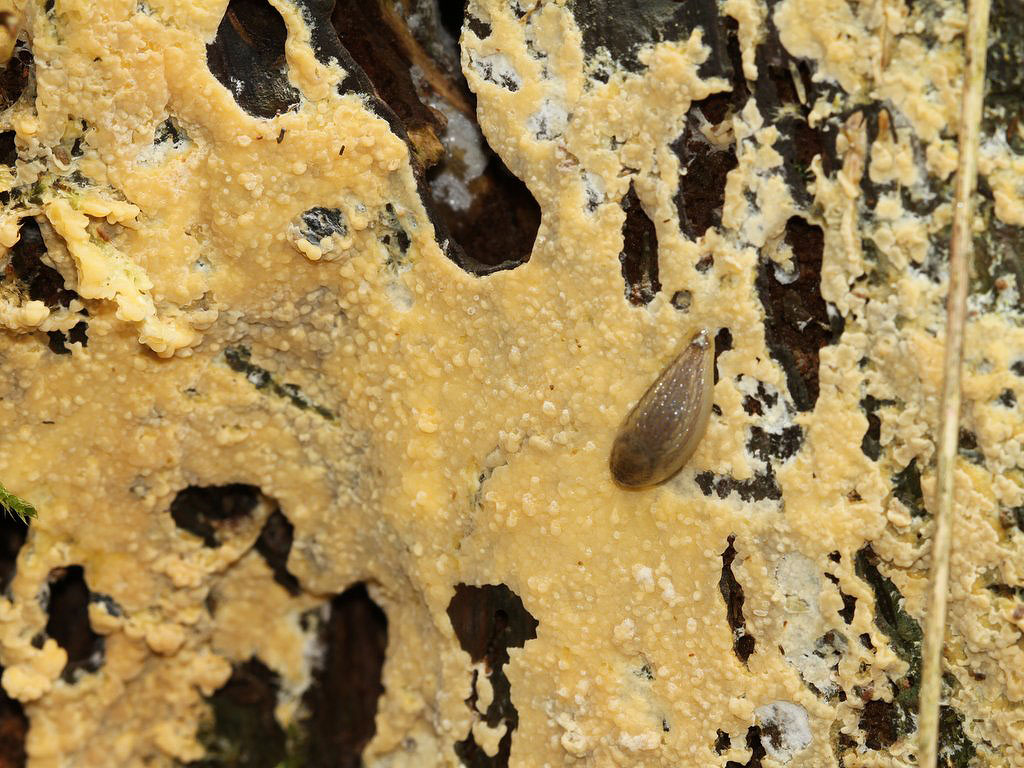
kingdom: Fungi
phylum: Basidiomycota
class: Agaricomycetes
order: Russulales
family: Peniophoraceae
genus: Gloiothele
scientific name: Gloiothele citrina
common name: citronskorpe
